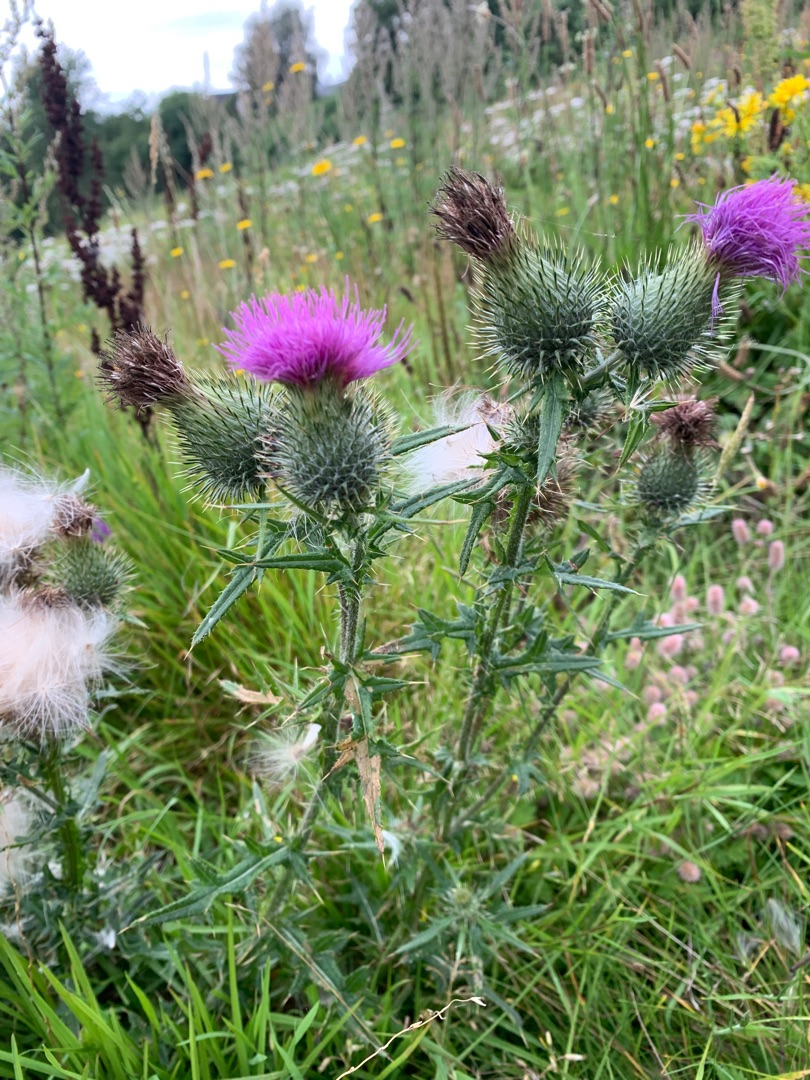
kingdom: Plantae
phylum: Tracheophyta
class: Magnoliopsida
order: Asterales
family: Asteraceae
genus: Cirsium
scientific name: Cirsium vulgare
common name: Horse-tidsel
